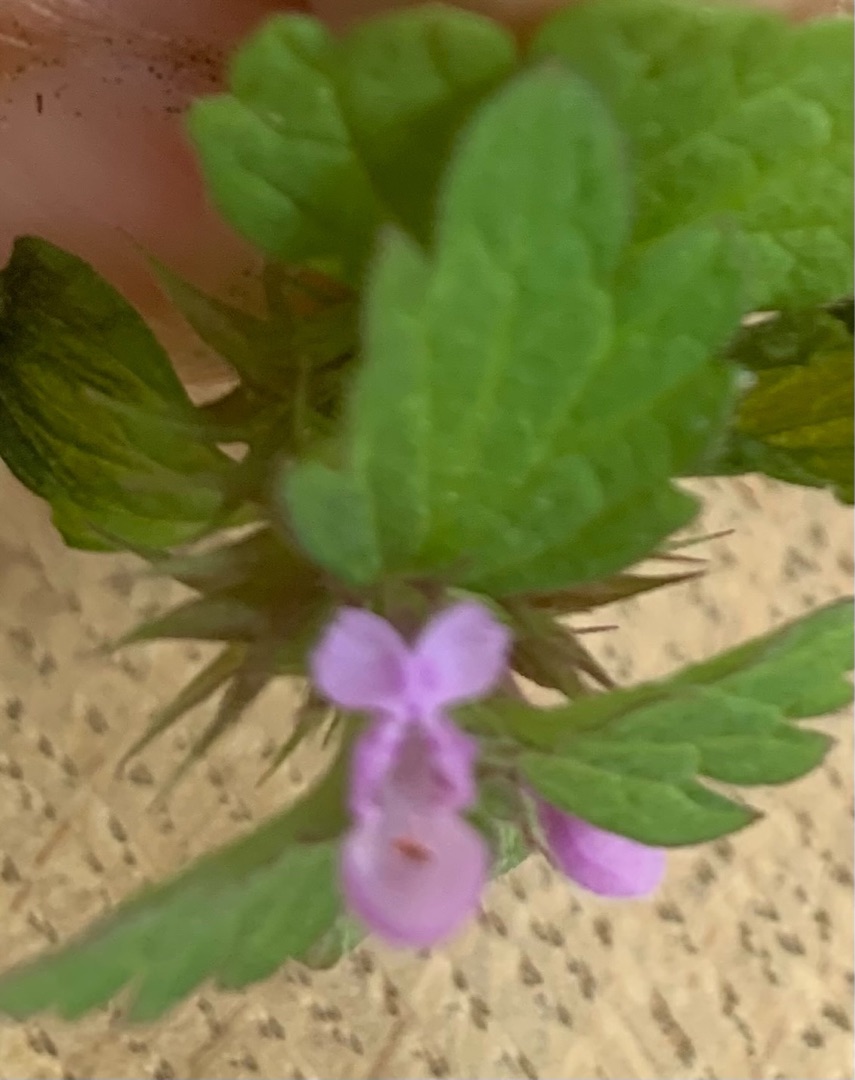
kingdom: Plantae
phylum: Tracheophyta
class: Magnoliopsida
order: Lamiales
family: Lamiaceae
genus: Lamium
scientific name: Lamium purpureum
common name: Rød tvetand
